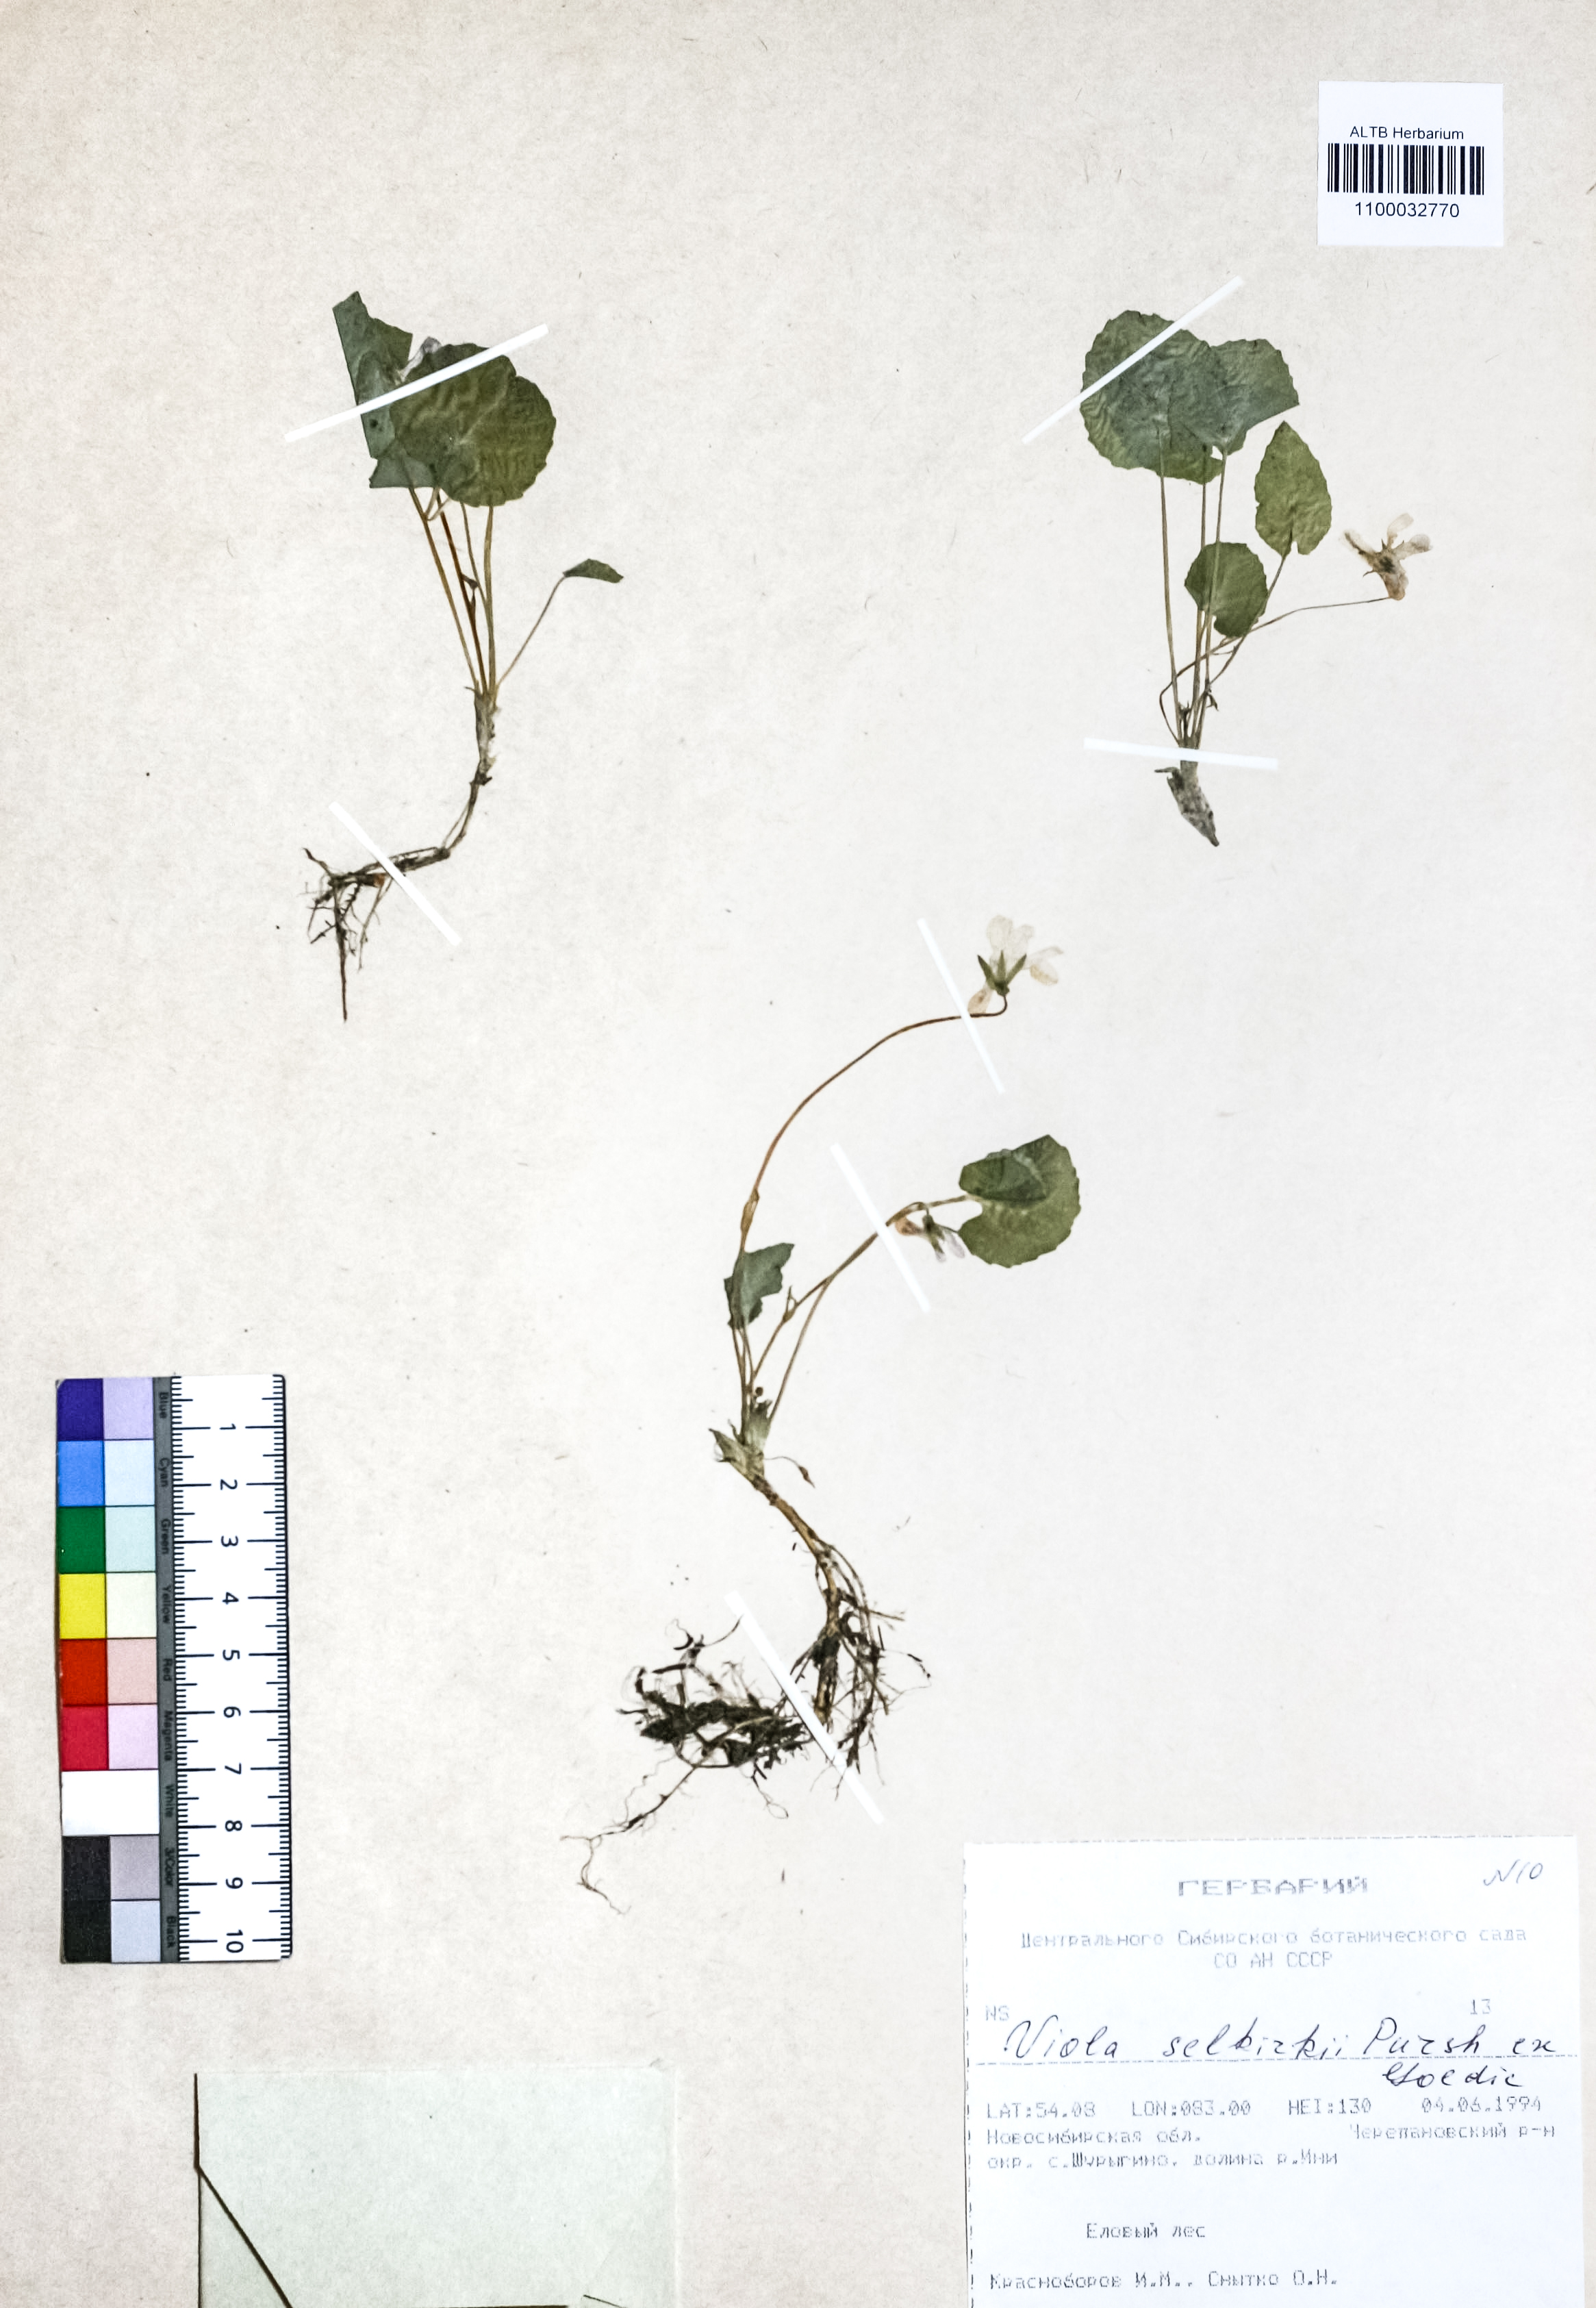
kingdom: Plantae
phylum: Tracheophyta
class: Magnoliopsida
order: Malpighiales
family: Violaceae
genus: Viola
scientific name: Viola selkirkii
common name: Selkirk's violet
